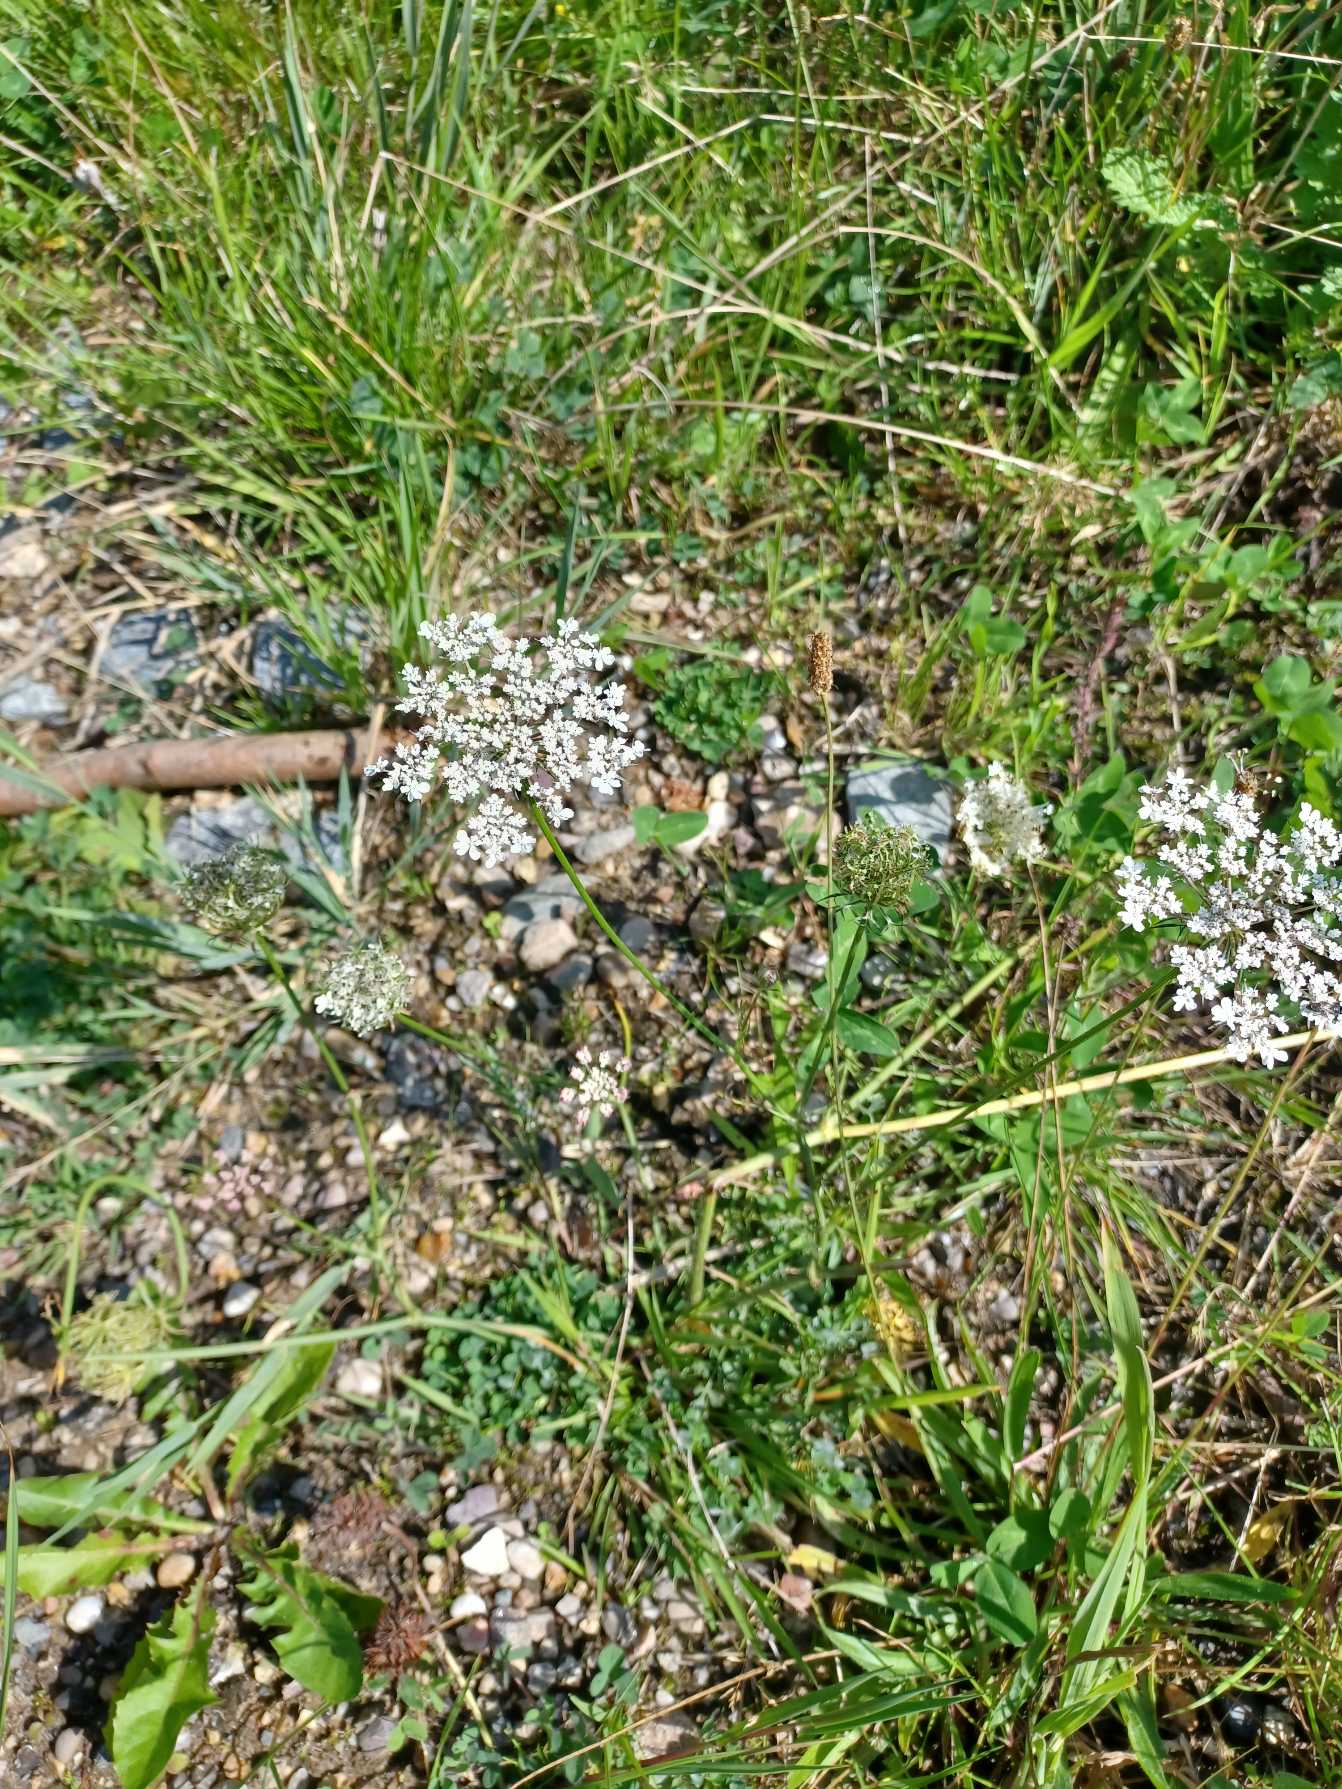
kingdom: Plantae
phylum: Tracheophyta
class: Magnoliopsida
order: Apiales
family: Apiaceae
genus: Daucus
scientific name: Daucus carota
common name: Vild gulerod
